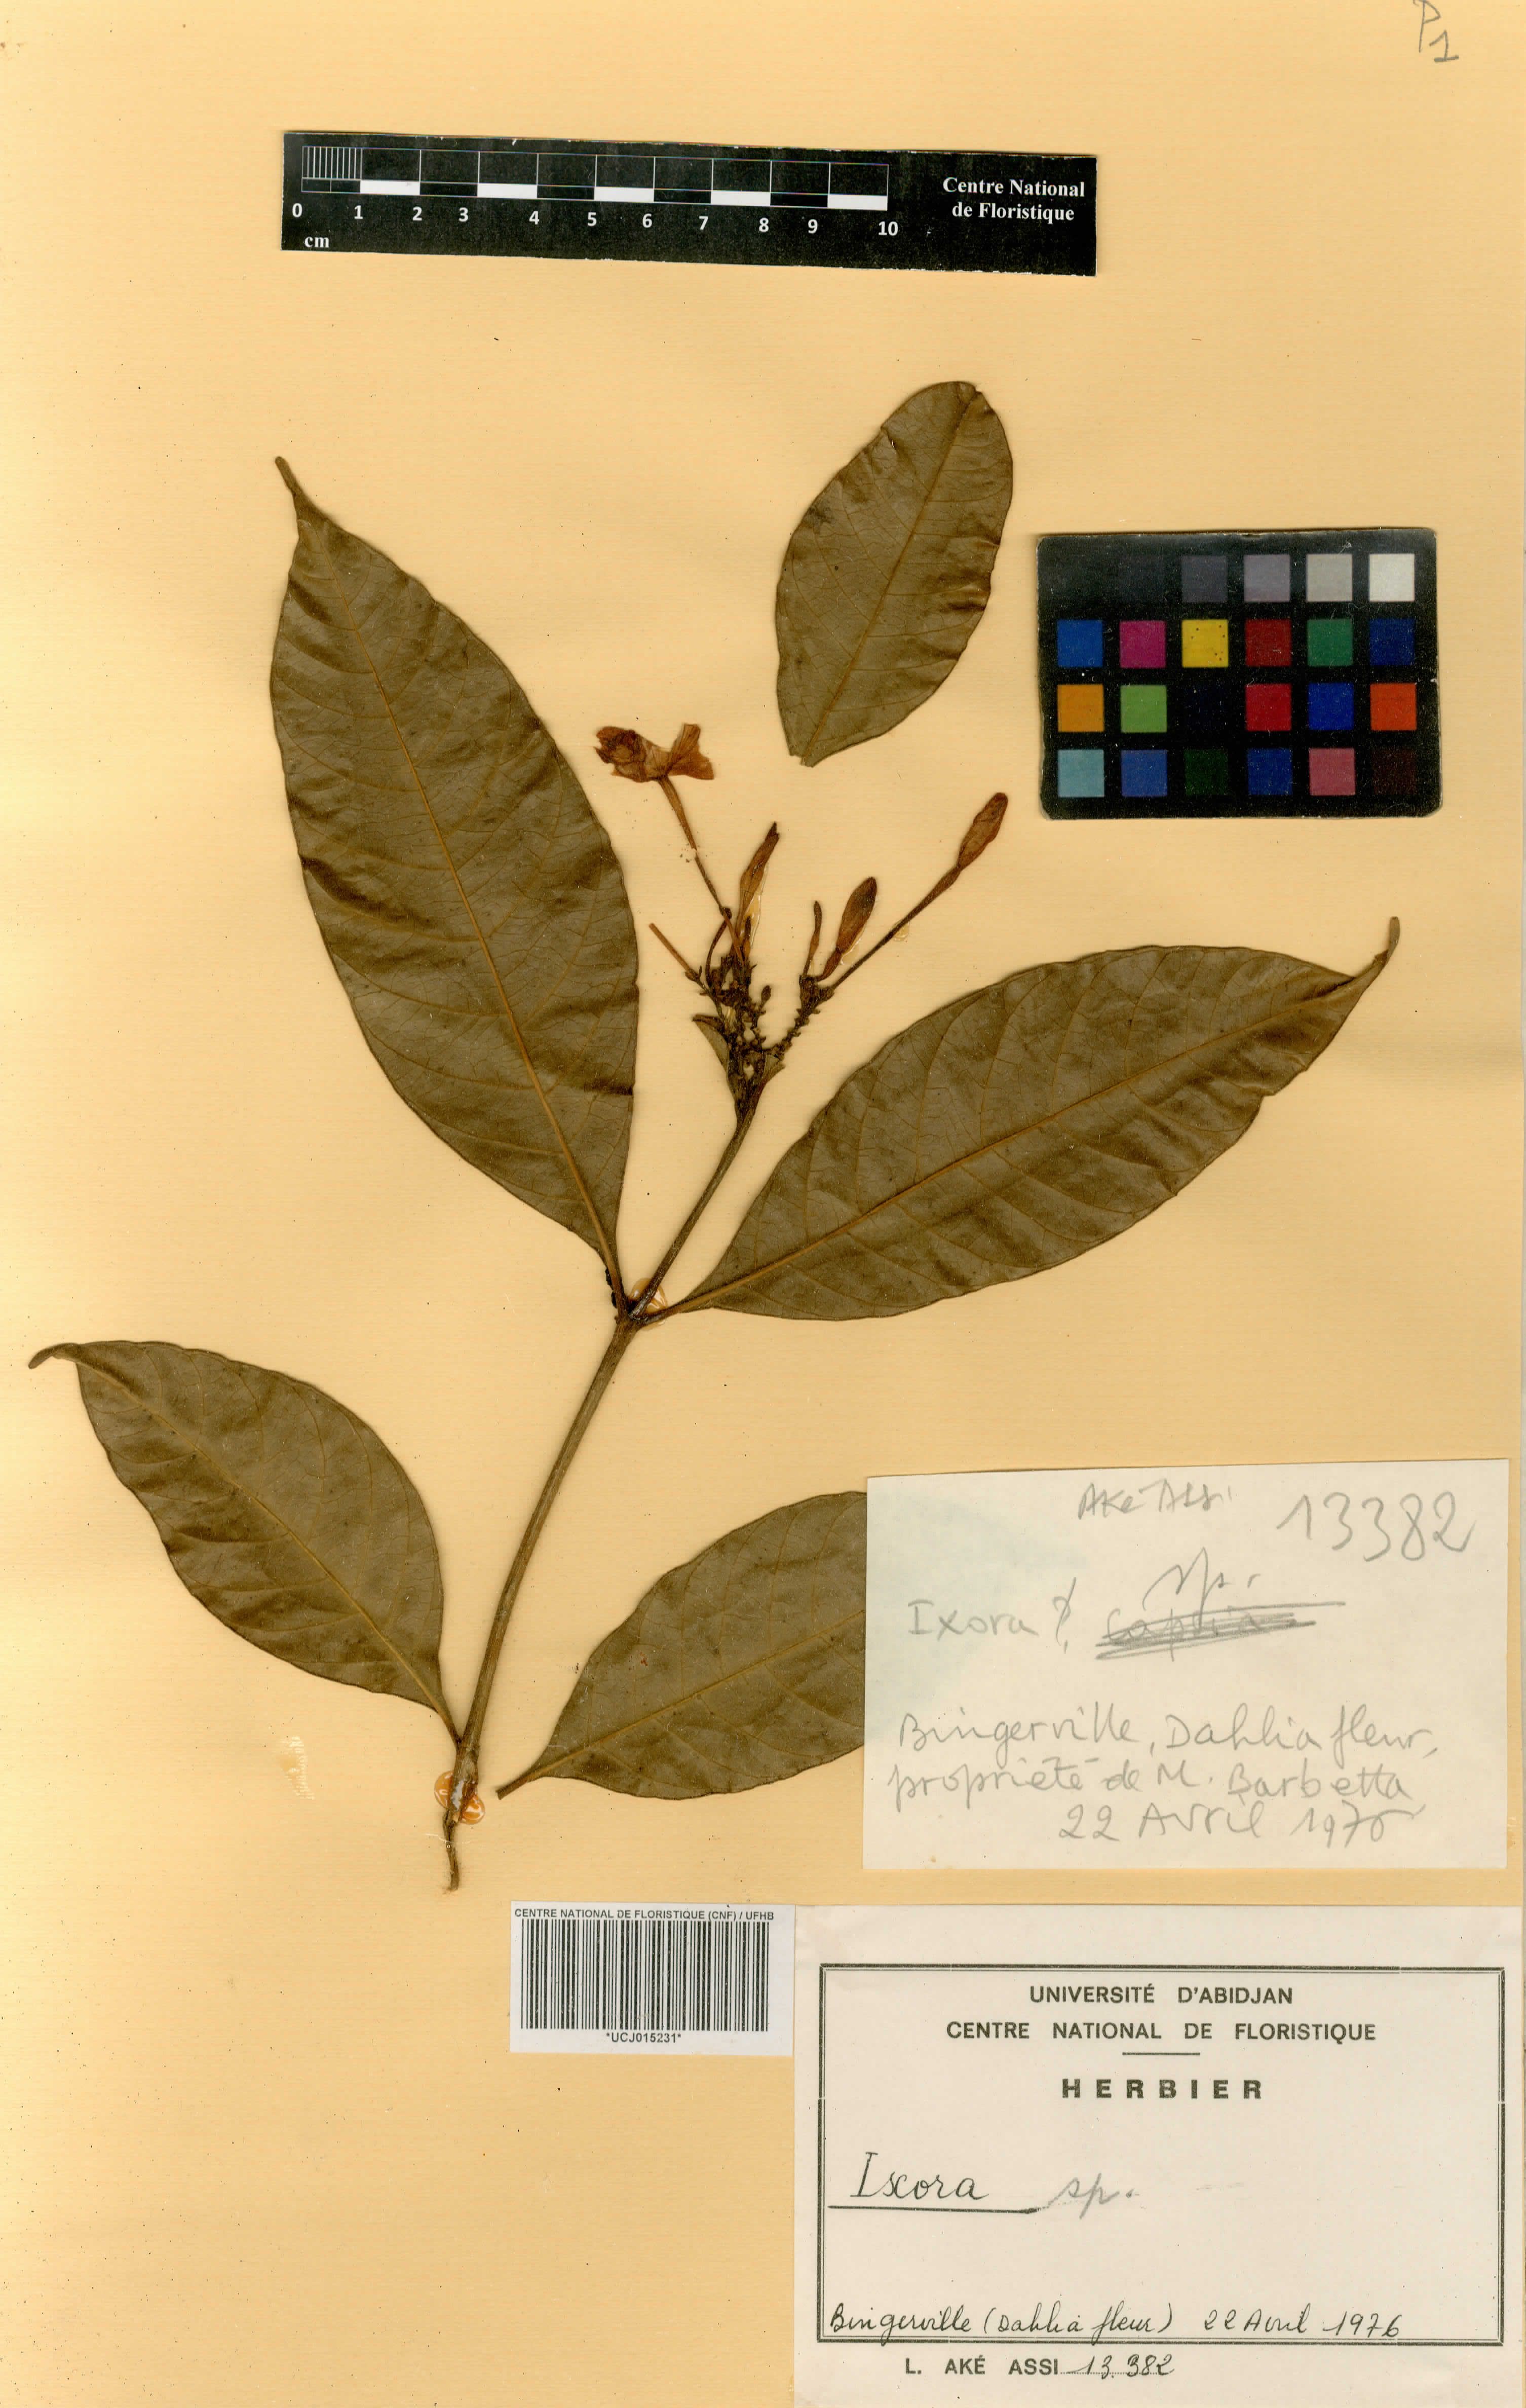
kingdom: Plantae
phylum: Tracheophyta
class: Magnoliopsida
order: Gentianales
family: Rubiaceae
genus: Ixora
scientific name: Ixora
